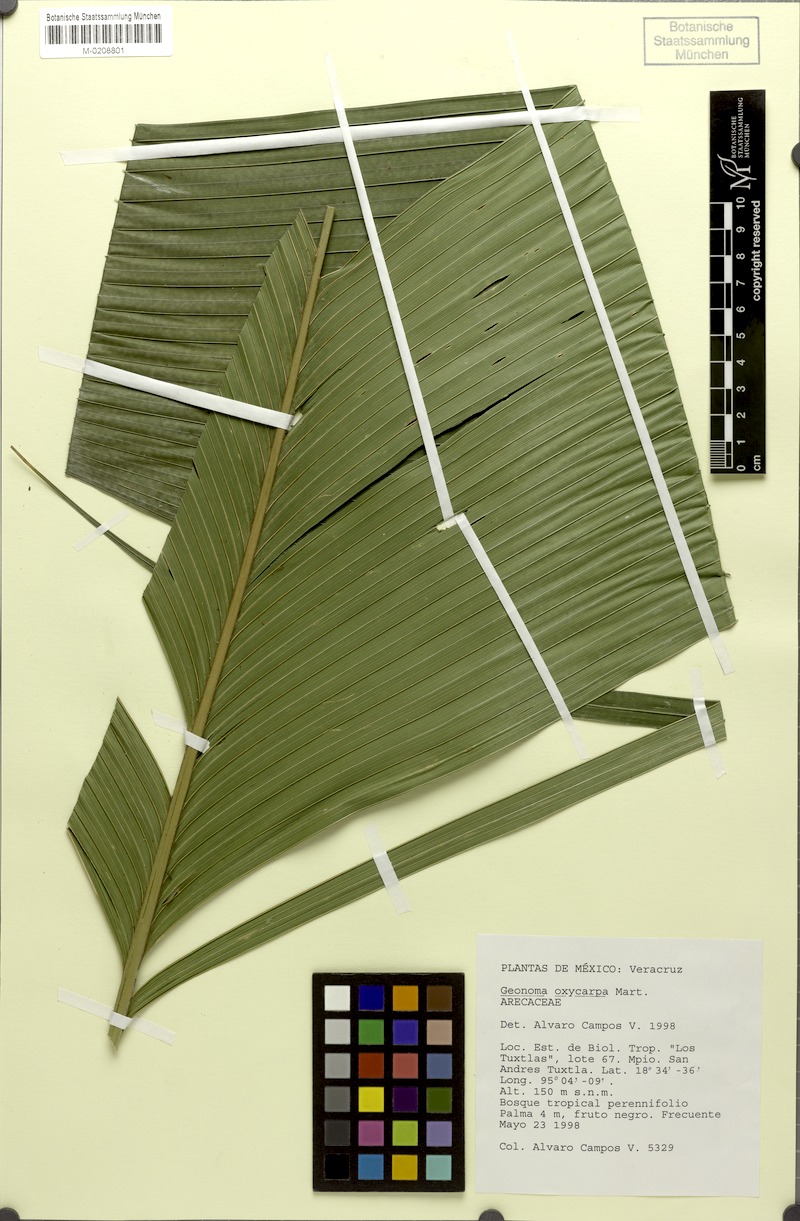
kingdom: Plantae
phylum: Tracheophyta
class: Liliopsida
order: Arecales
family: Arecaceae
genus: Geonoma
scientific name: Geonoma pinnatifrons
